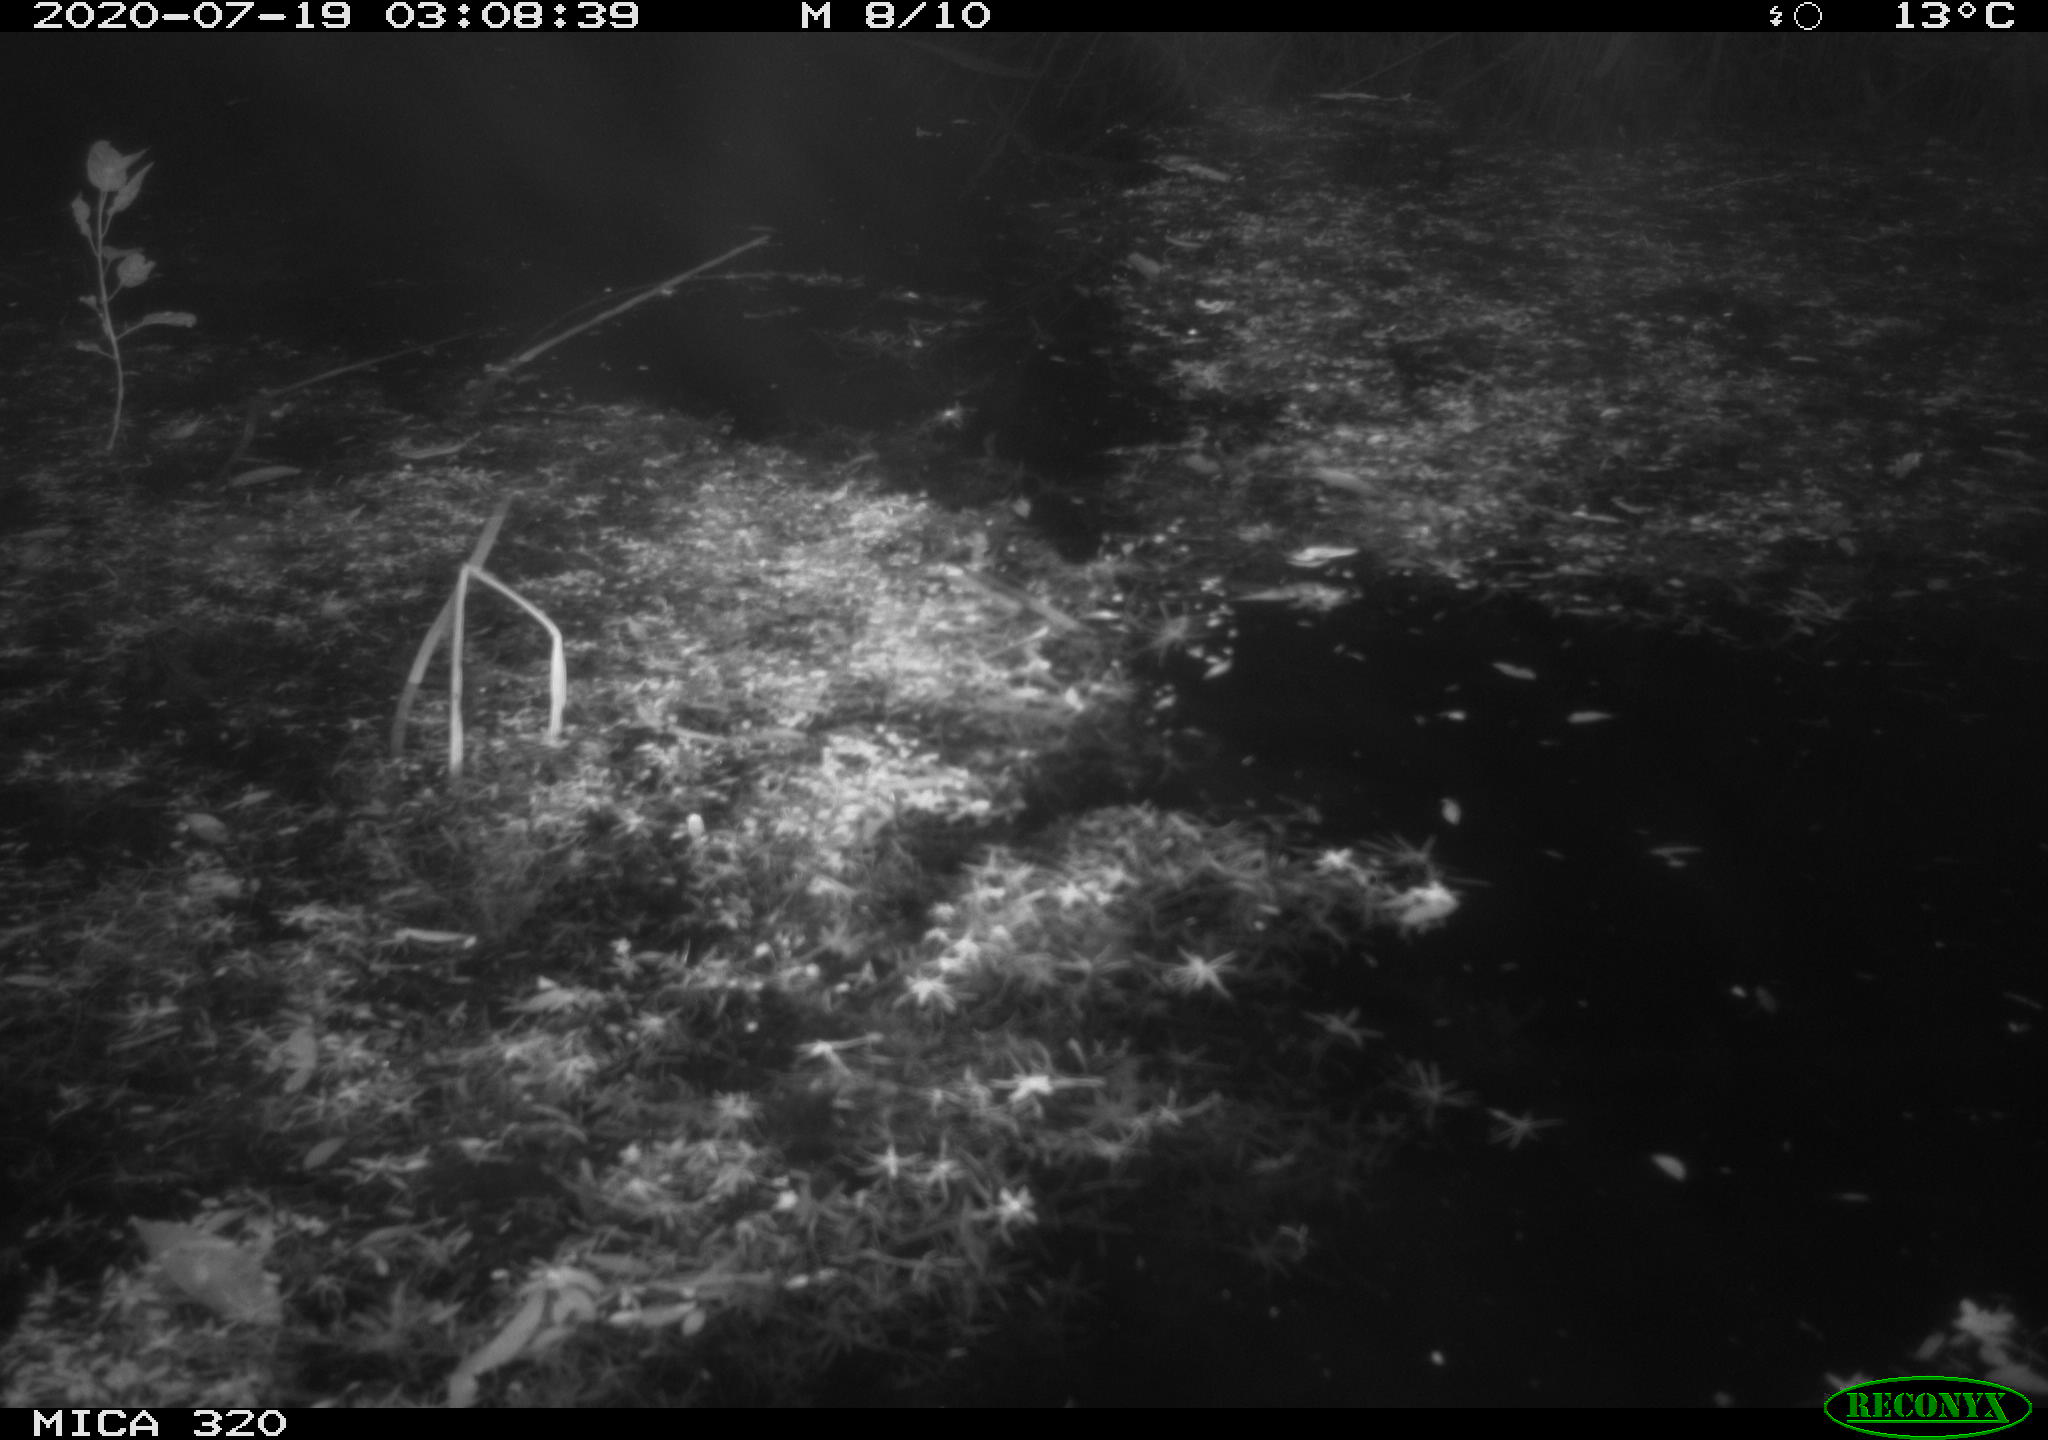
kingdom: Animalia
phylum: Chordata
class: Mammalia
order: Rodentia
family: Muridae
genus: Rattus
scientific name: Rattus norvegicus
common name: Brown rat
